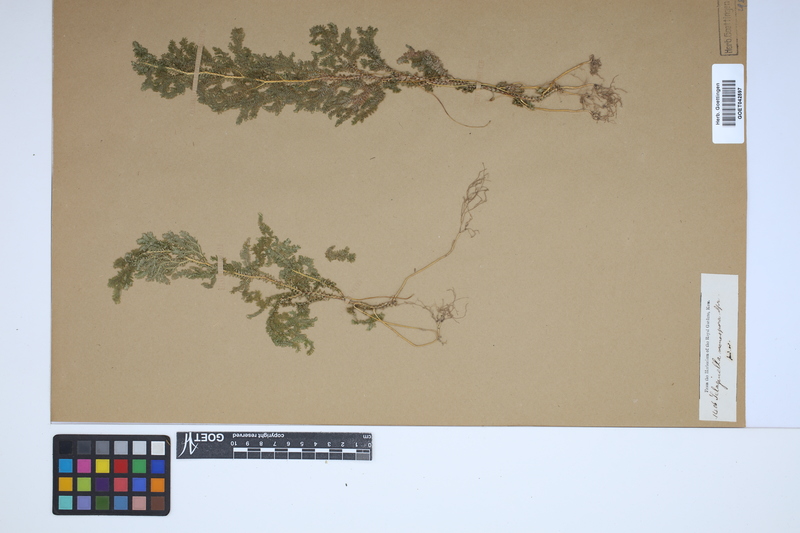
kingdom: Plantae
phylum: Tracheophyta
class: Lycopodiopsida
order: Selaginellales
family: Selaginellaceae
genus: Selaginella
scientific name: Selaginella monospora
